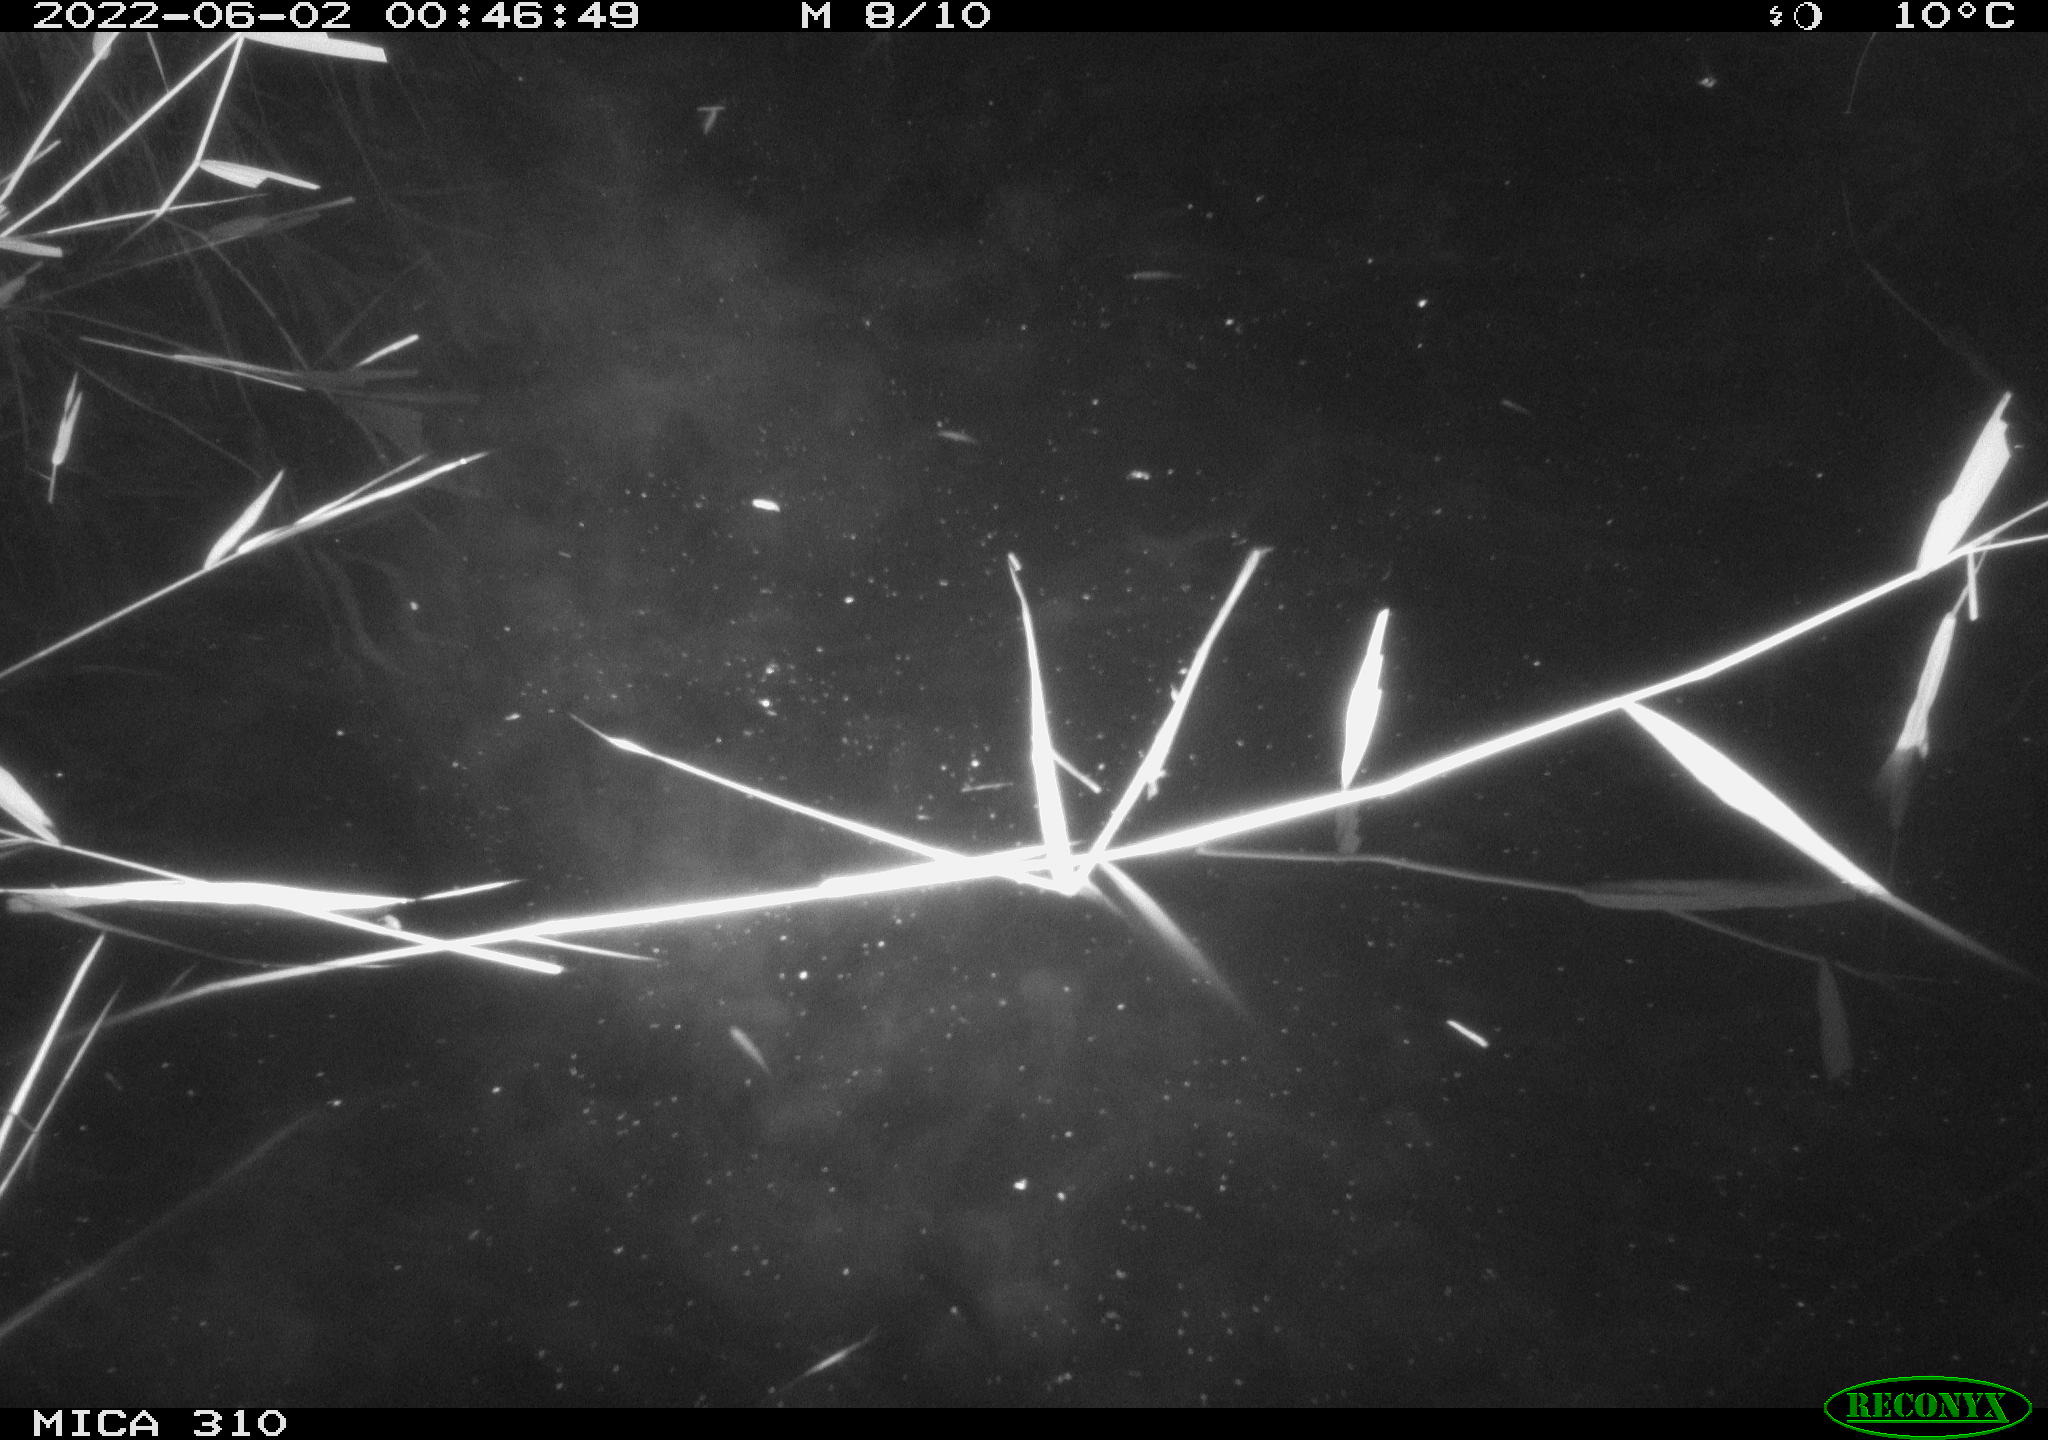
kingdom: Animalia
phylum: Chordata
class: Aves
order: Gruiformes
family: Rallidae
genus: Fulica
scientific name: Fulica atra
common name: Eurasian coot
